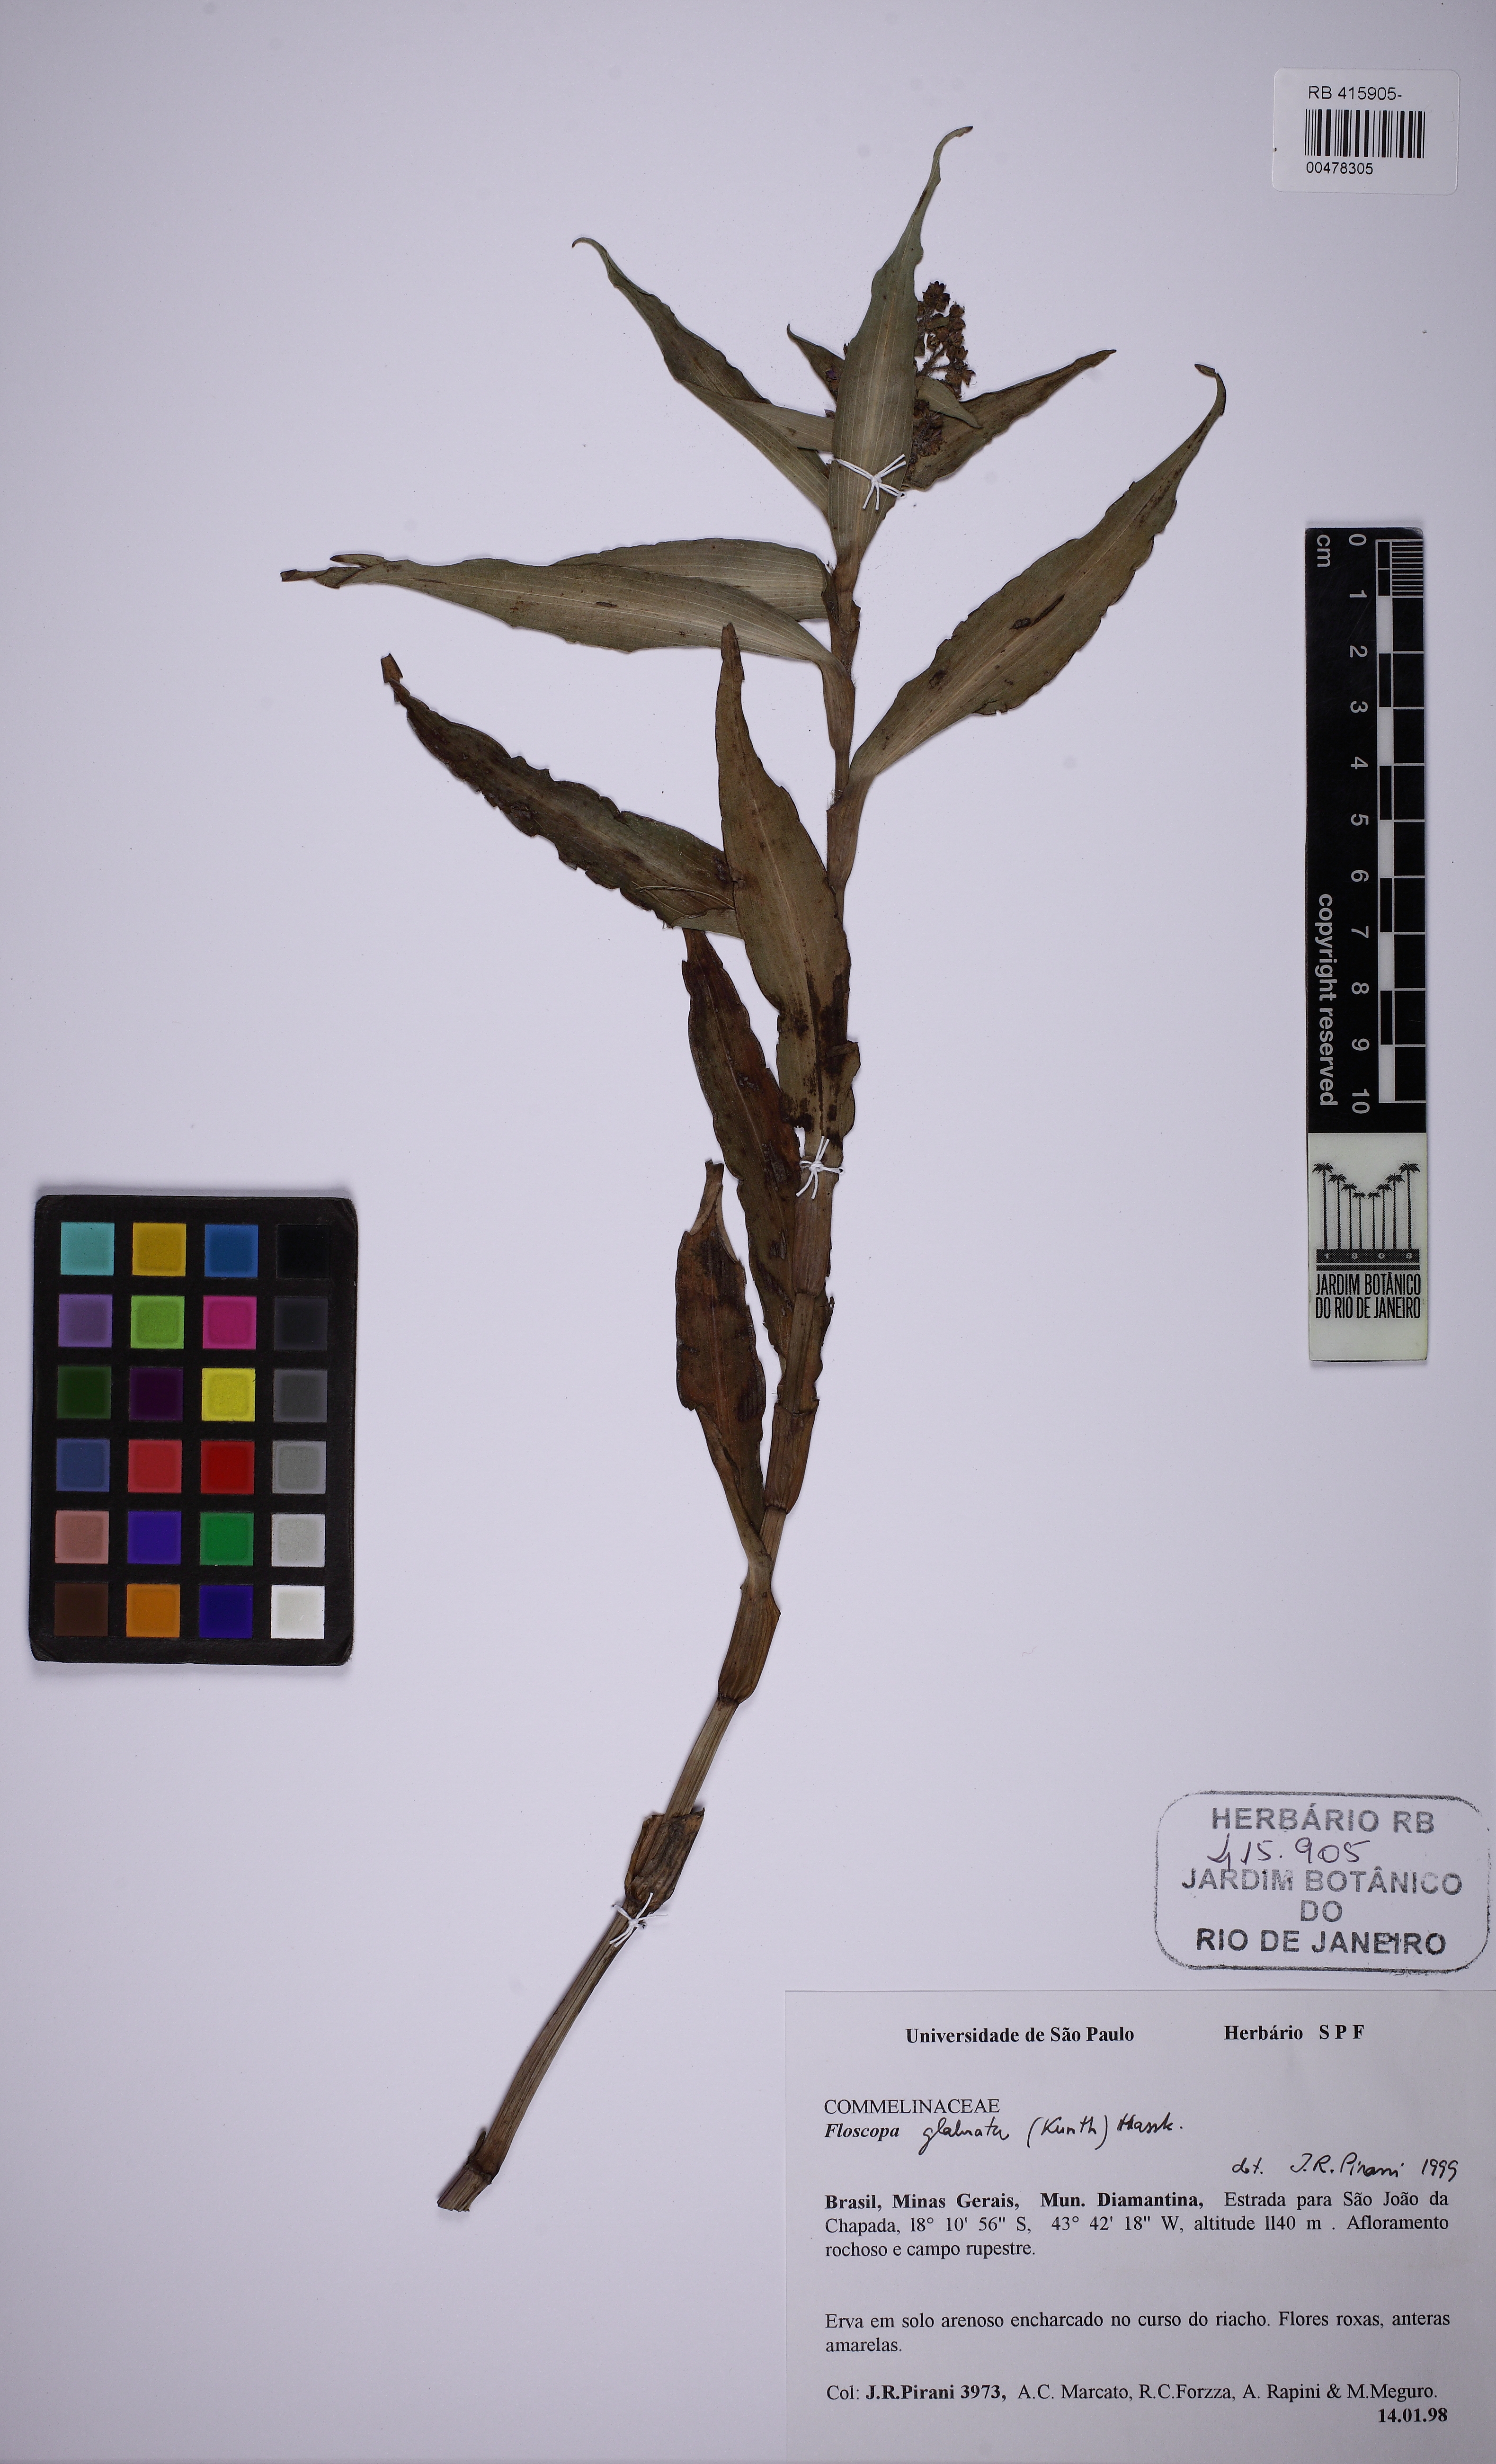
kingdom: Plantae
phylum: Tracheophyta
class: Liliopsida
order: Commelinales
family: Commelinaceae
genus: Floscopa
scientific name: Floscopa glabrata
